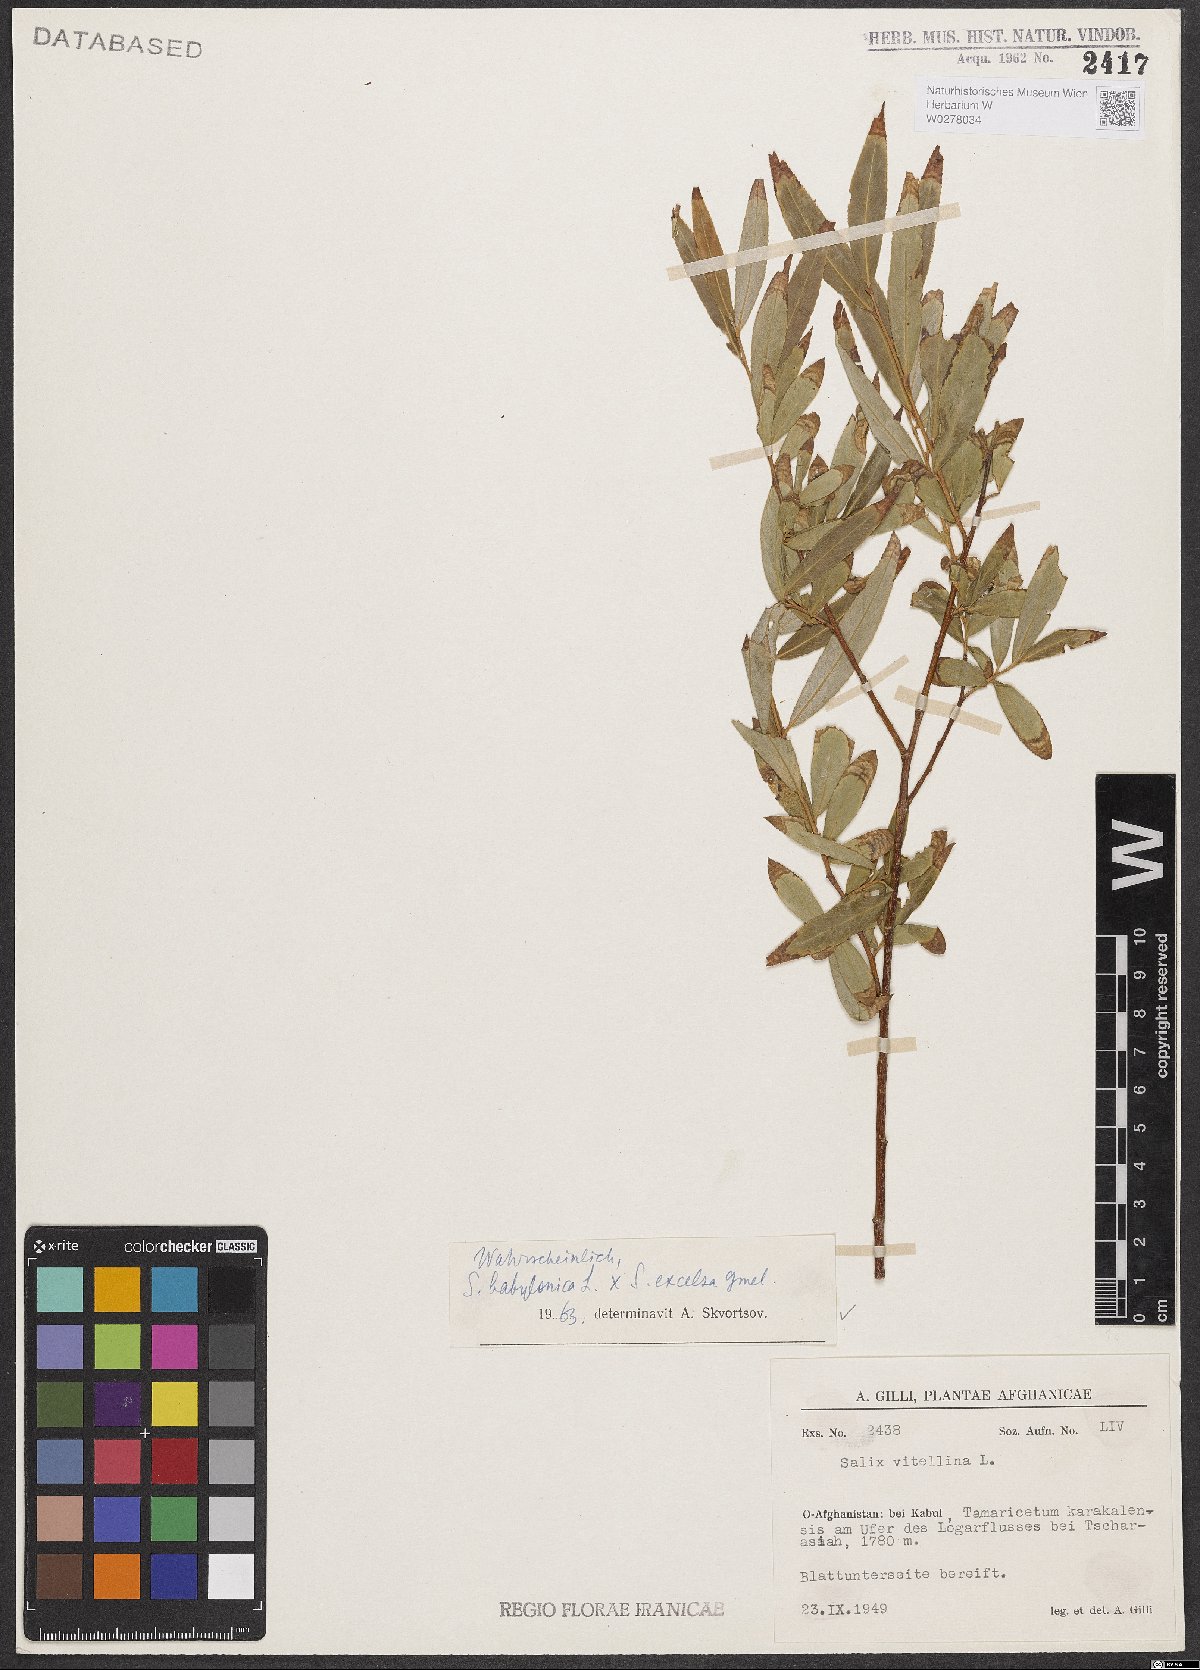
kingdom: Plantae
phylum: Tracheophyta
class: Magnoliopsida
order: Malpighiales
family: Salicaceae
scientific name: Salicaceae
